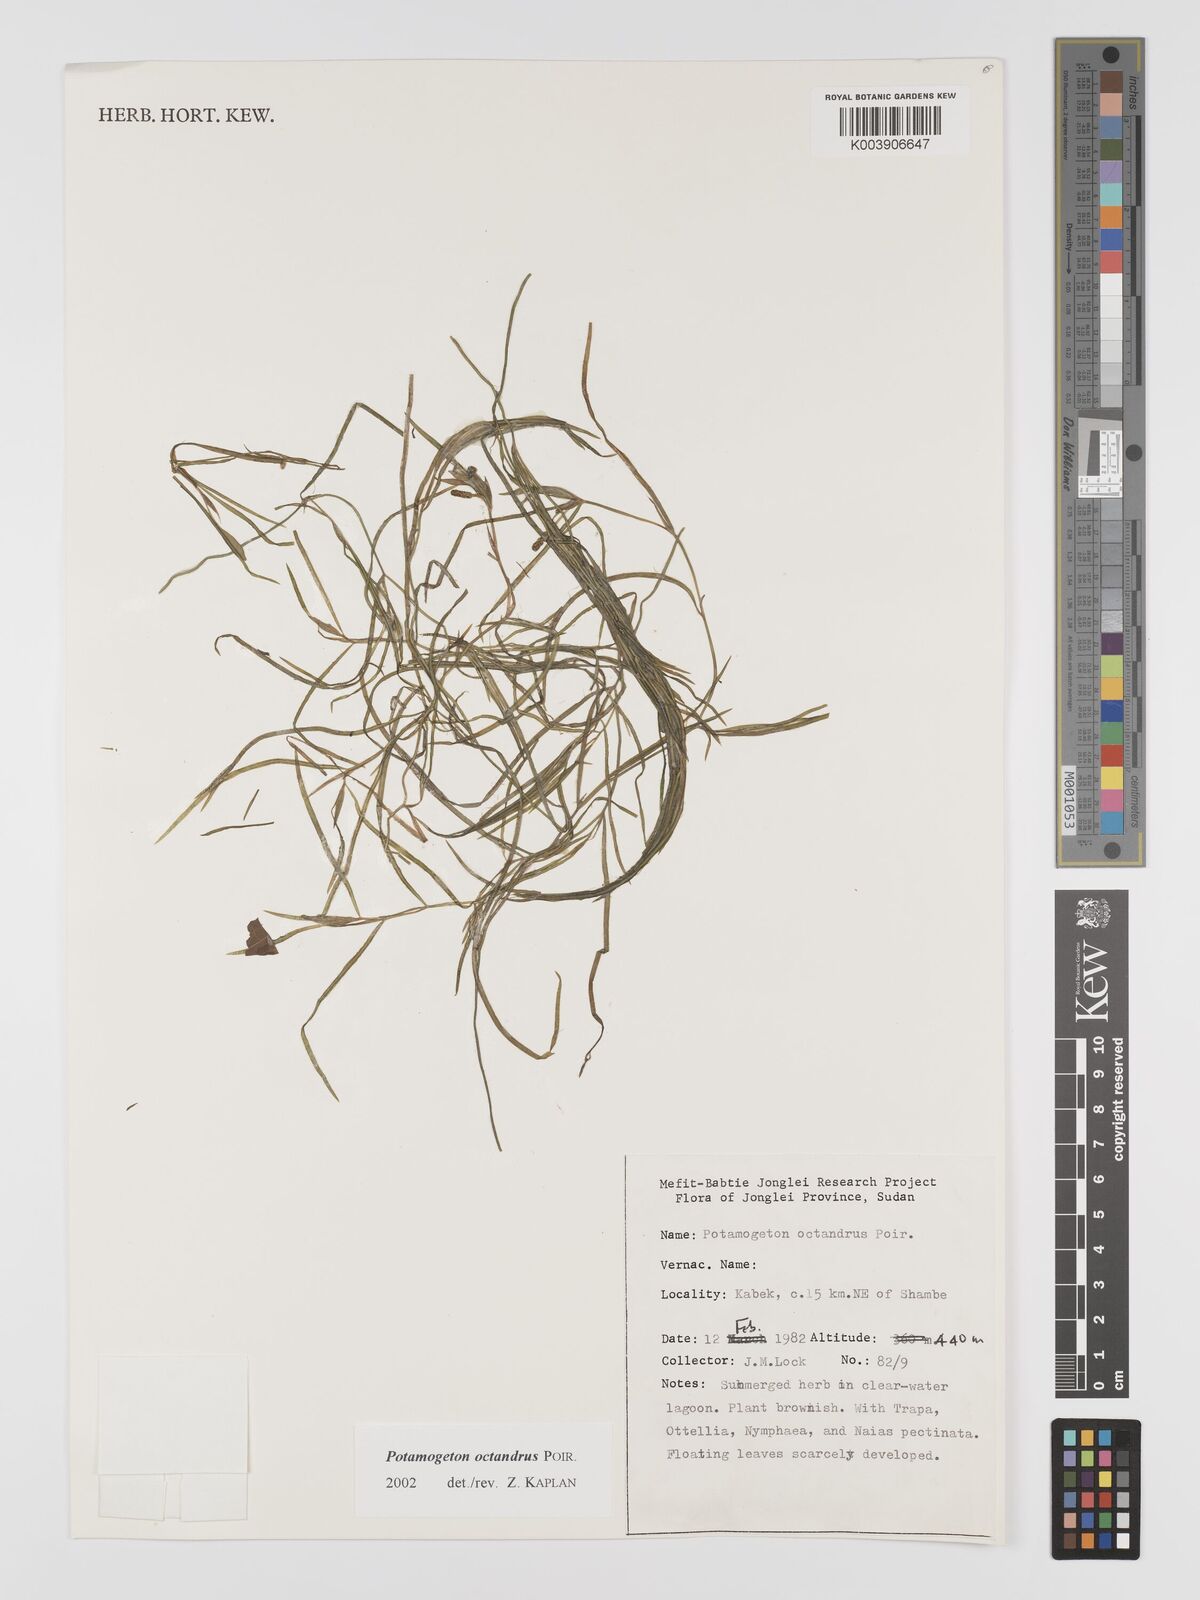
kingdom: Plantae
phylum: Tracheophyta
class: Liliopsida
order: Alismatales
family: Potamogetonaceae
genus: Potamogeton
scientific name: Potamogeton octandrus
